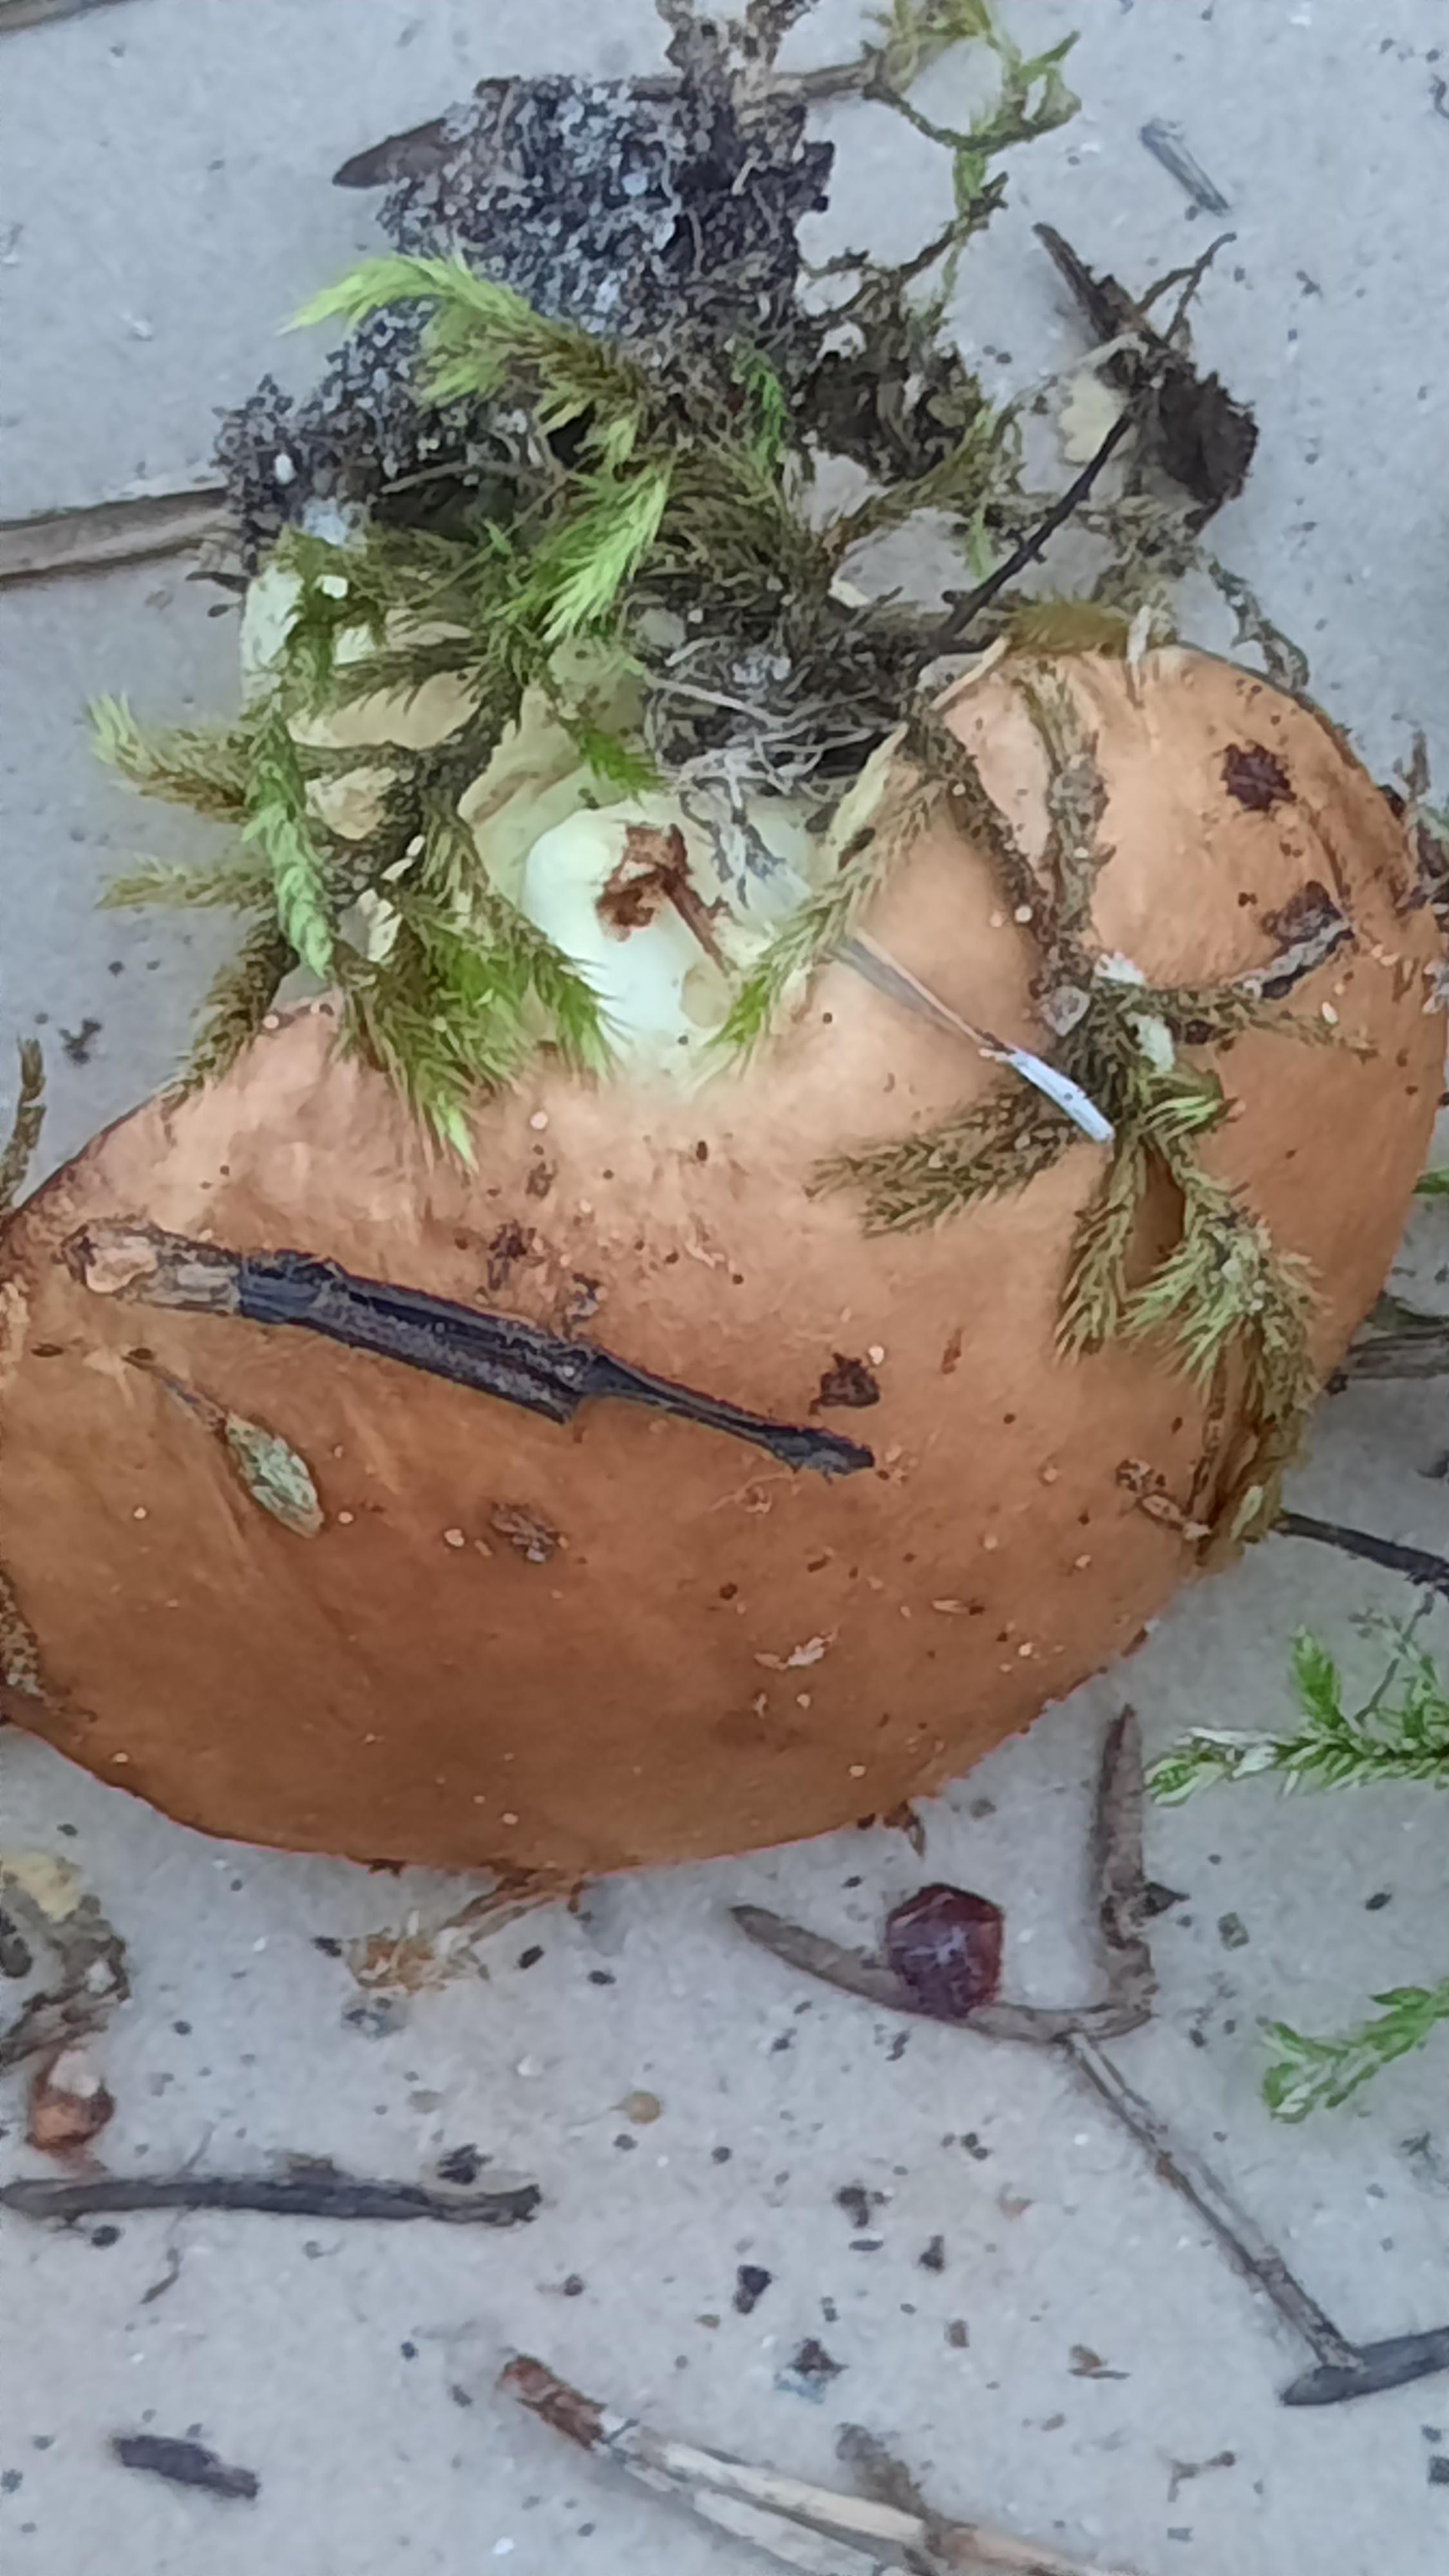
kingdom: Fungi
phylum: Basidiomycota
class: Agaricomycetes
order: Boletales
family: Suillaceae
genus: Suillus
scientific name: Suillus granulatus
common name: kornet slimrørhat
